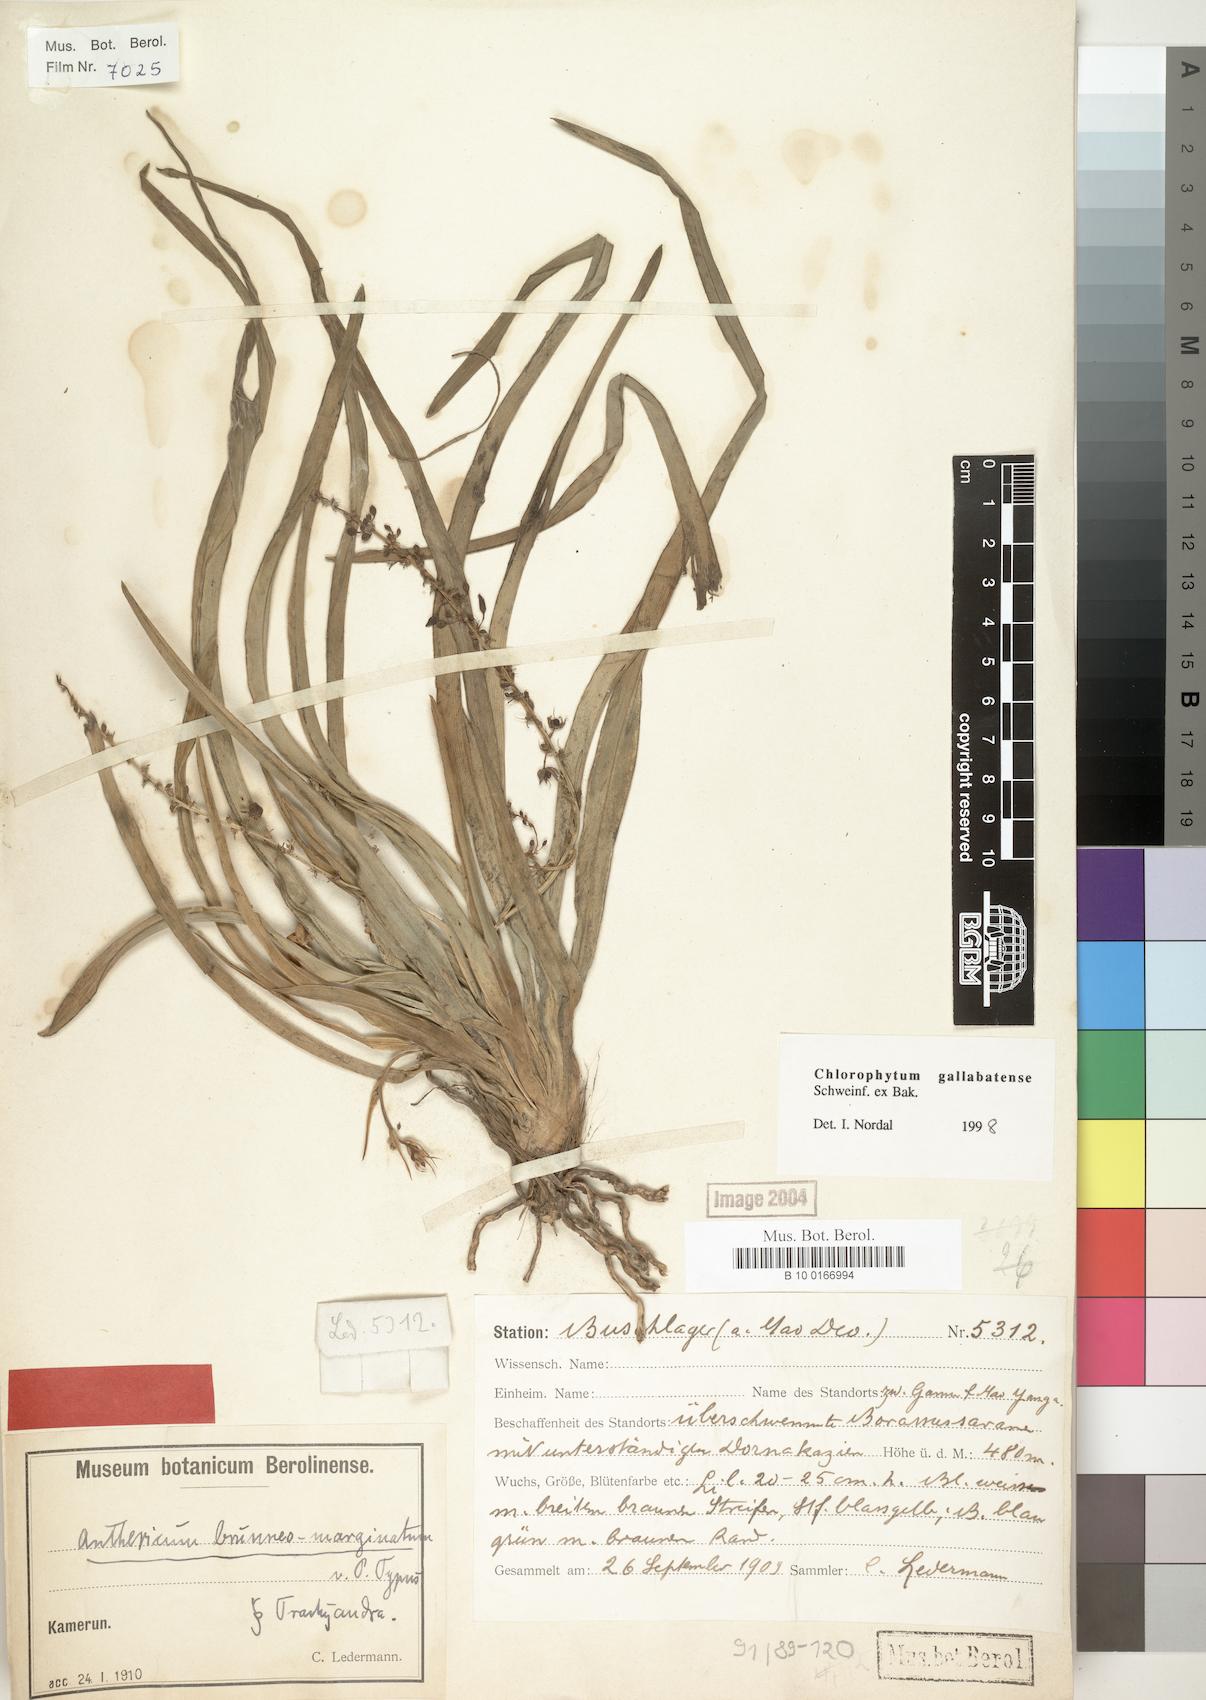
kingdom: Plantae
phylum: Tracheophyta
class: Liliopsida
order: Asparagales
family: Asparagaceae
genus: Chlorophytum
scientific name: Chlorophytum affine
